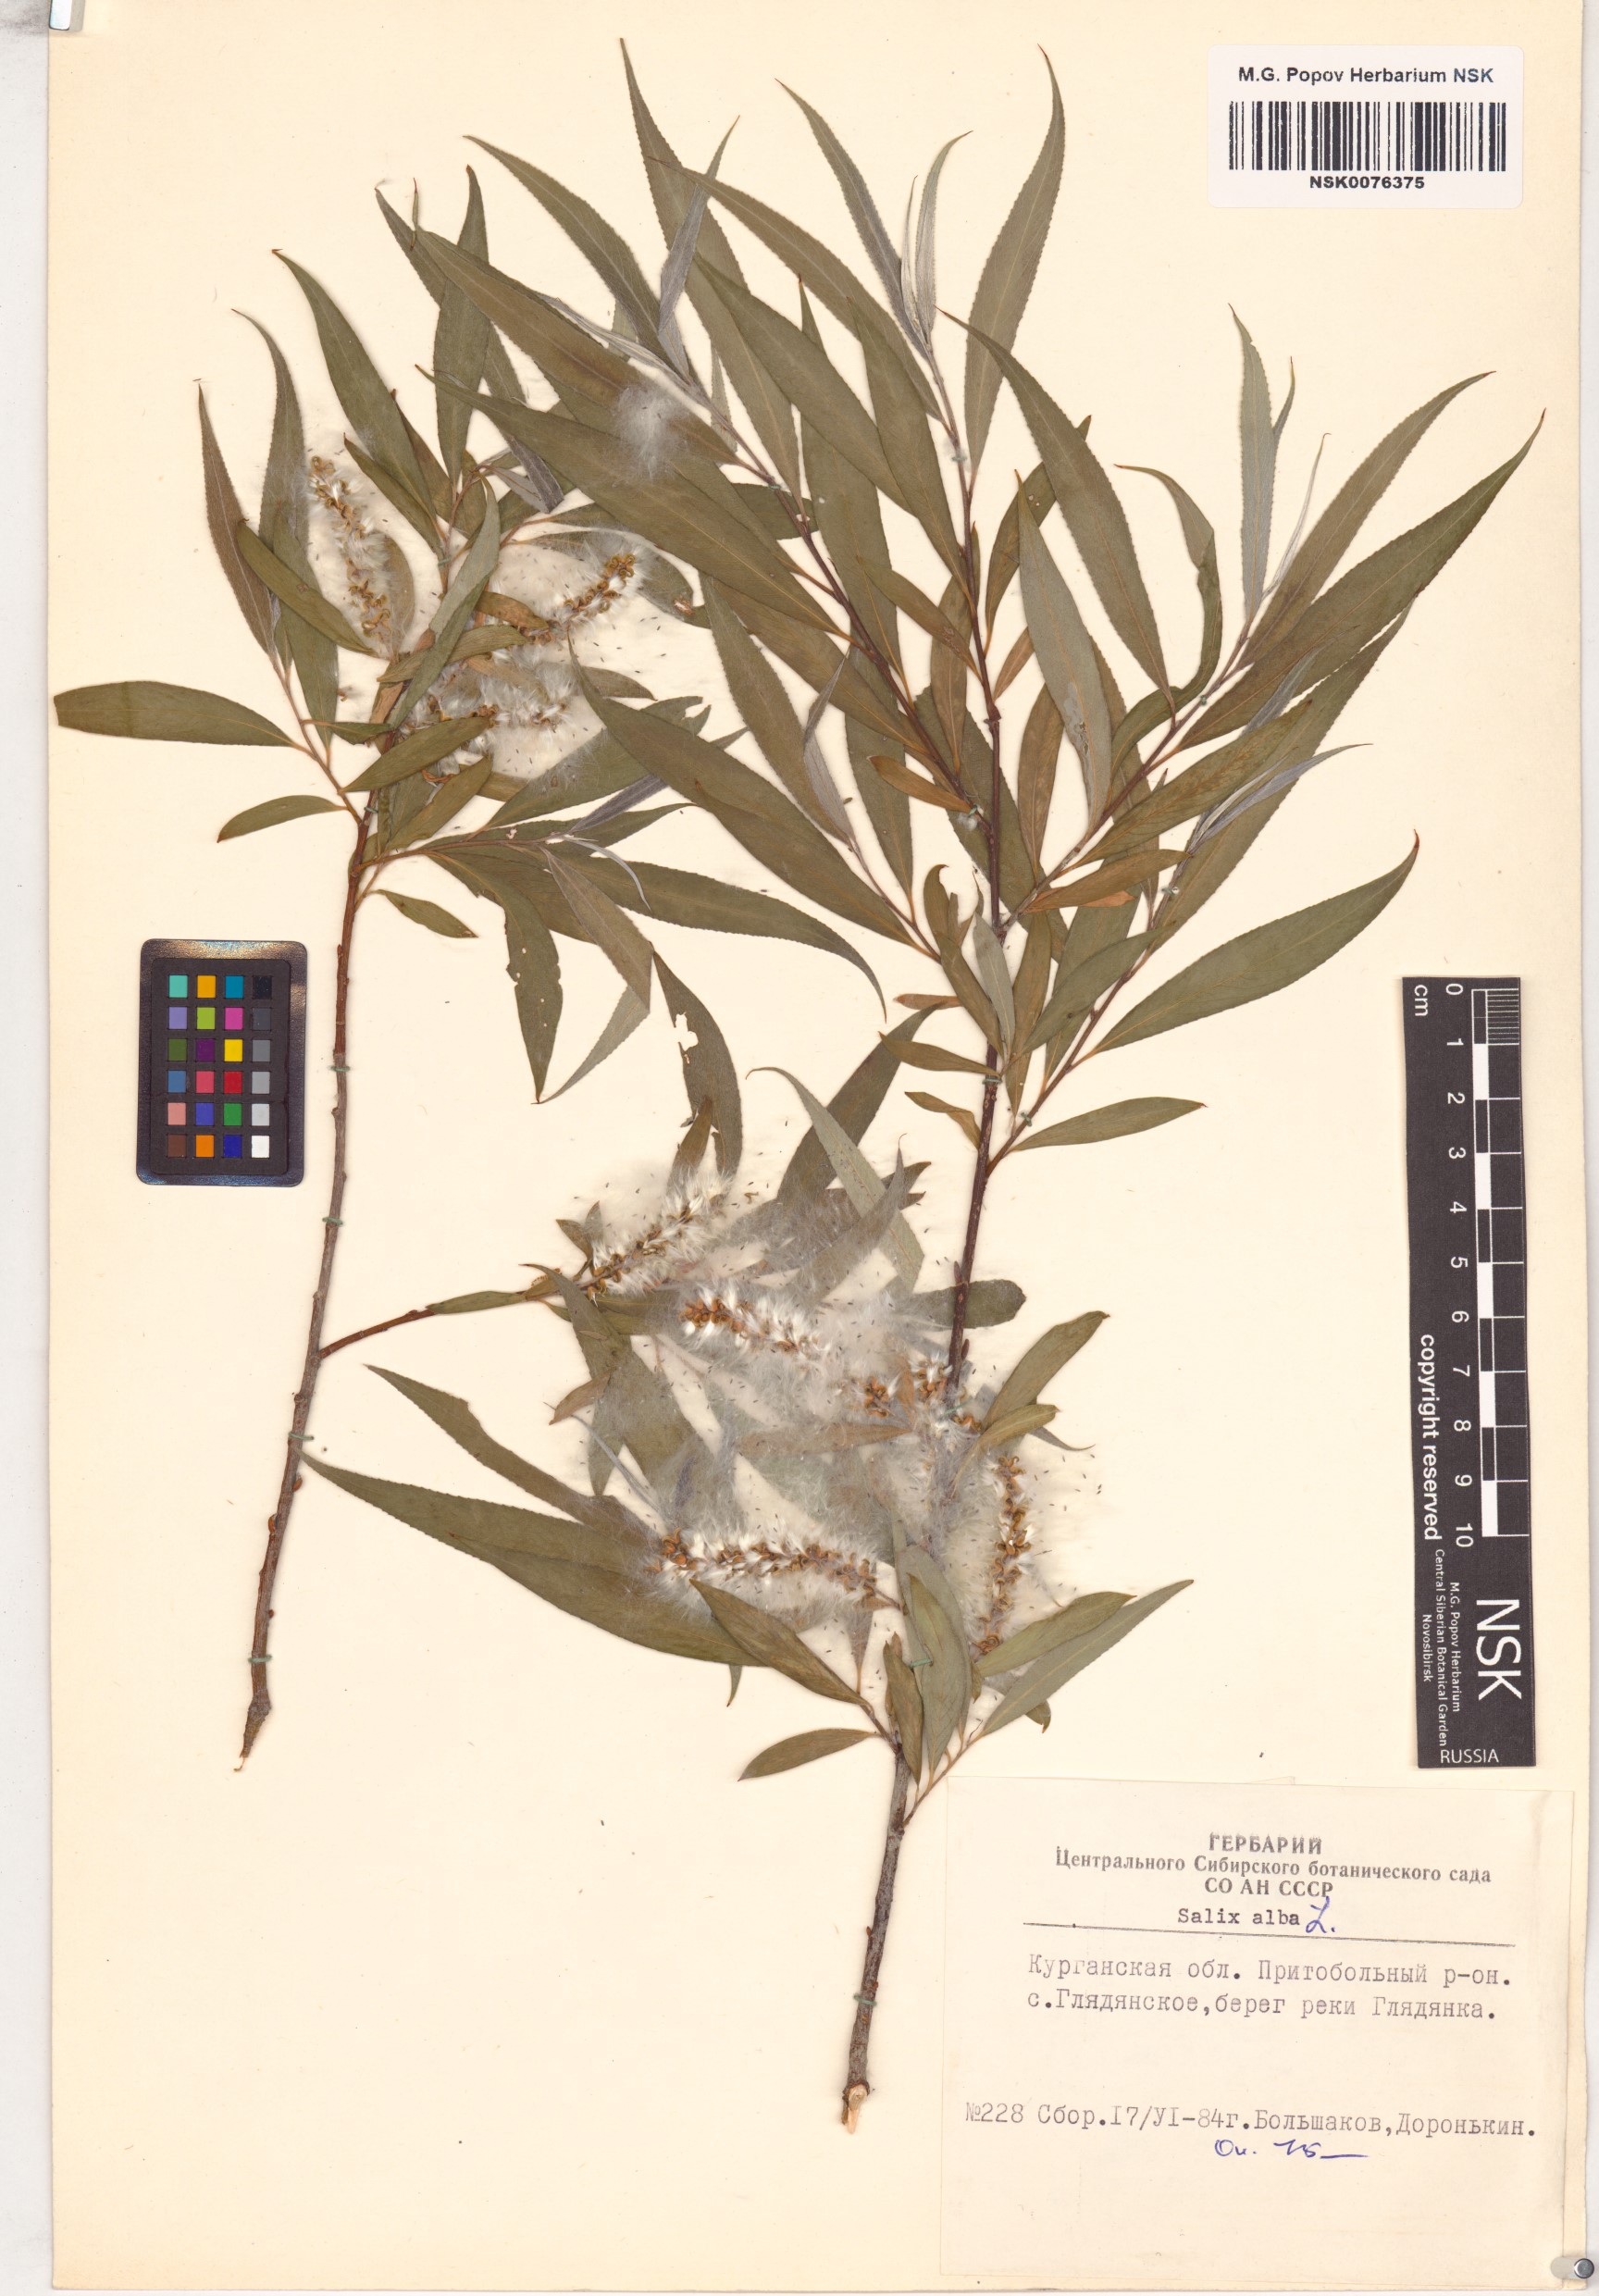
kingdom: Plantae
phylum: Tracheophyta
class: Magnoliopsida
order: Malpighiales
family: Salicaceae
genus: Salix
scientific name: Salix alba
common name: White willow
